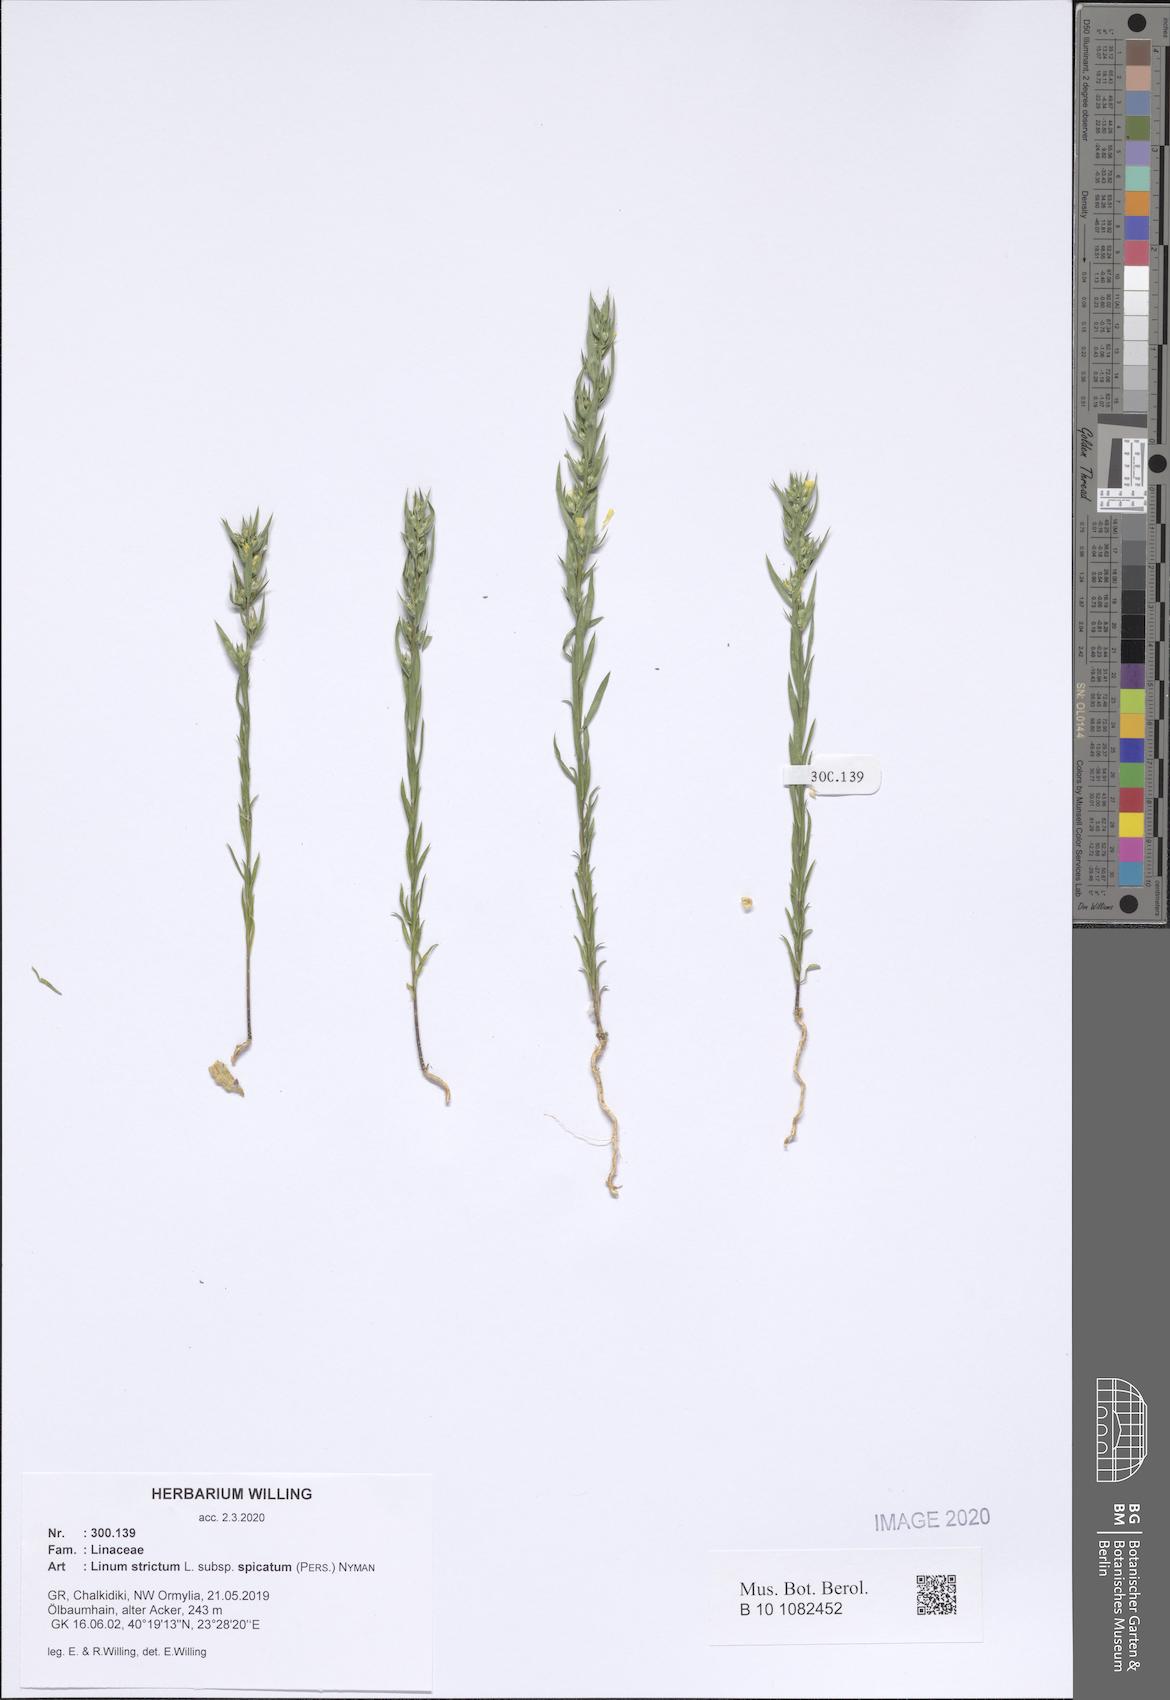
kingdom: Plantae
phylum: Tracheophyta
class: Magnoliopsida
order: Malpighiales
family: Linaceae
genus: Linum
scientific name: Linum strictum
